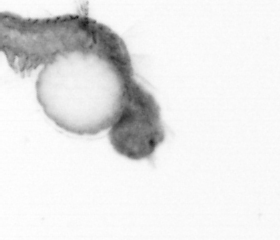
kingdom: Animalia
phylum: Annelida
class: Polychaeta
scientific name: Polychaeta
